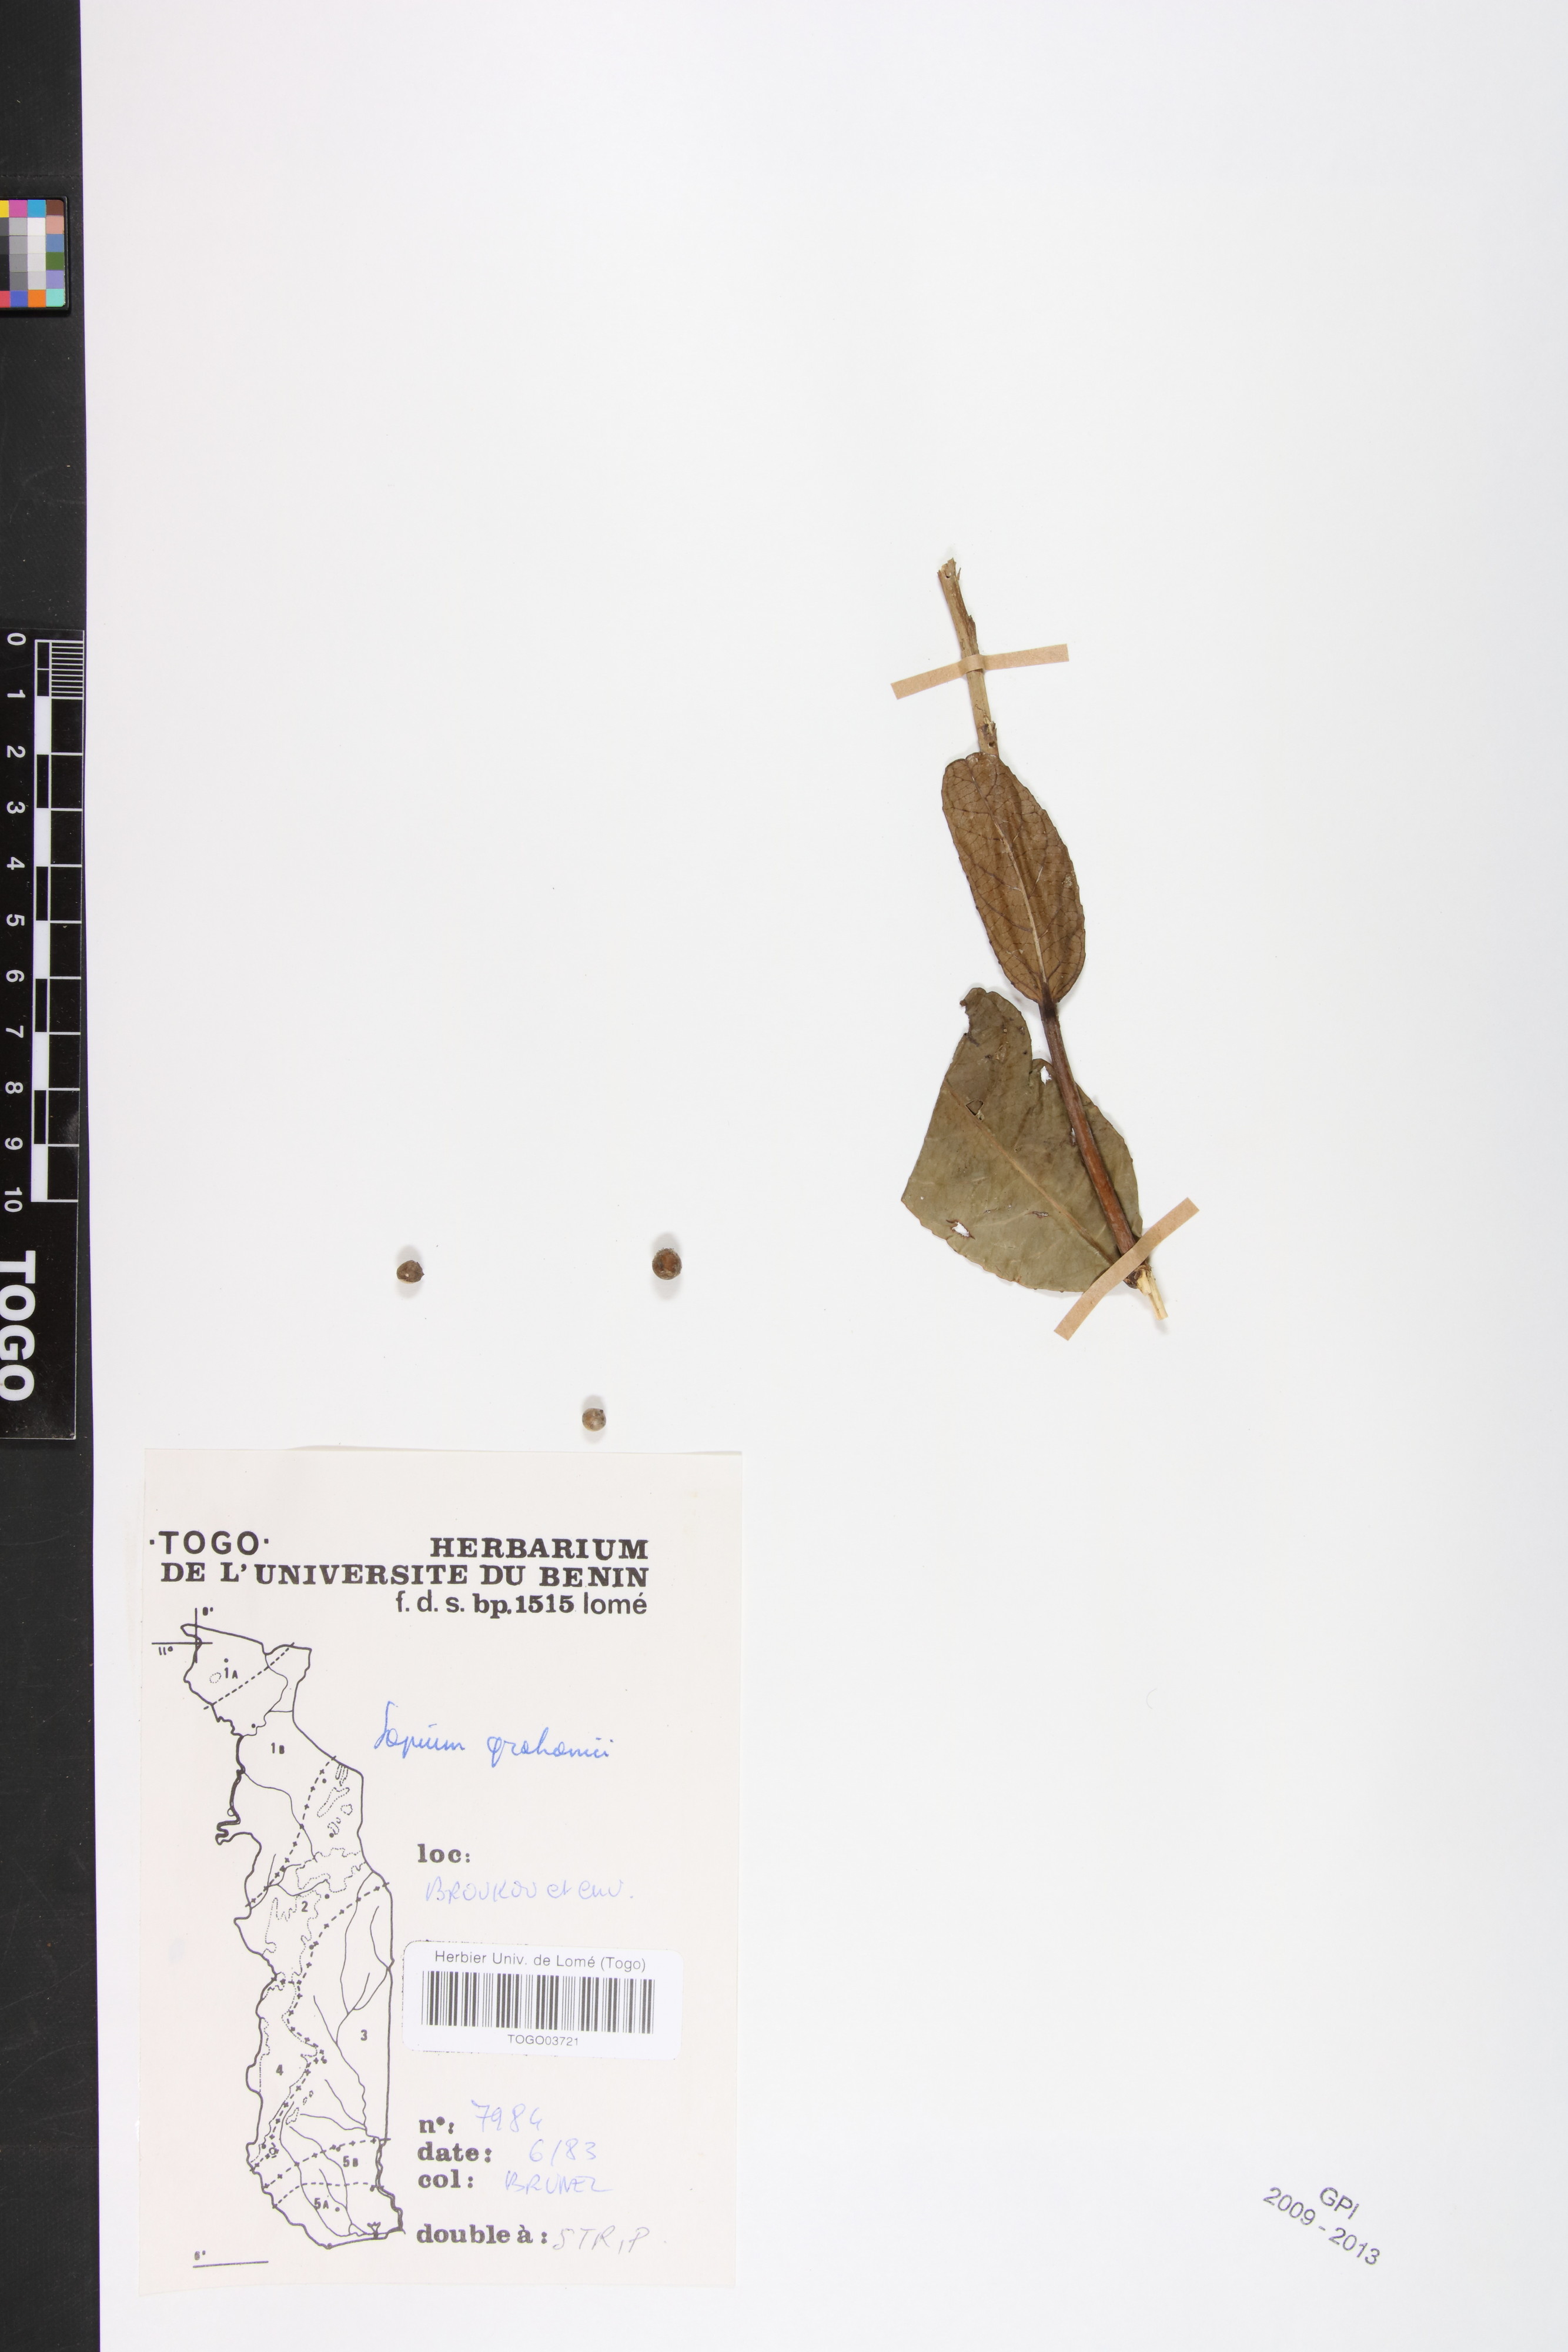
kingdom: Plantae
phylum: Tracheophyta
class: Magnoliopsida
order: Malpighiales
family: Euphorbiaceae
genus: Excoecaria
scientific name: Excoecaria grahamii
